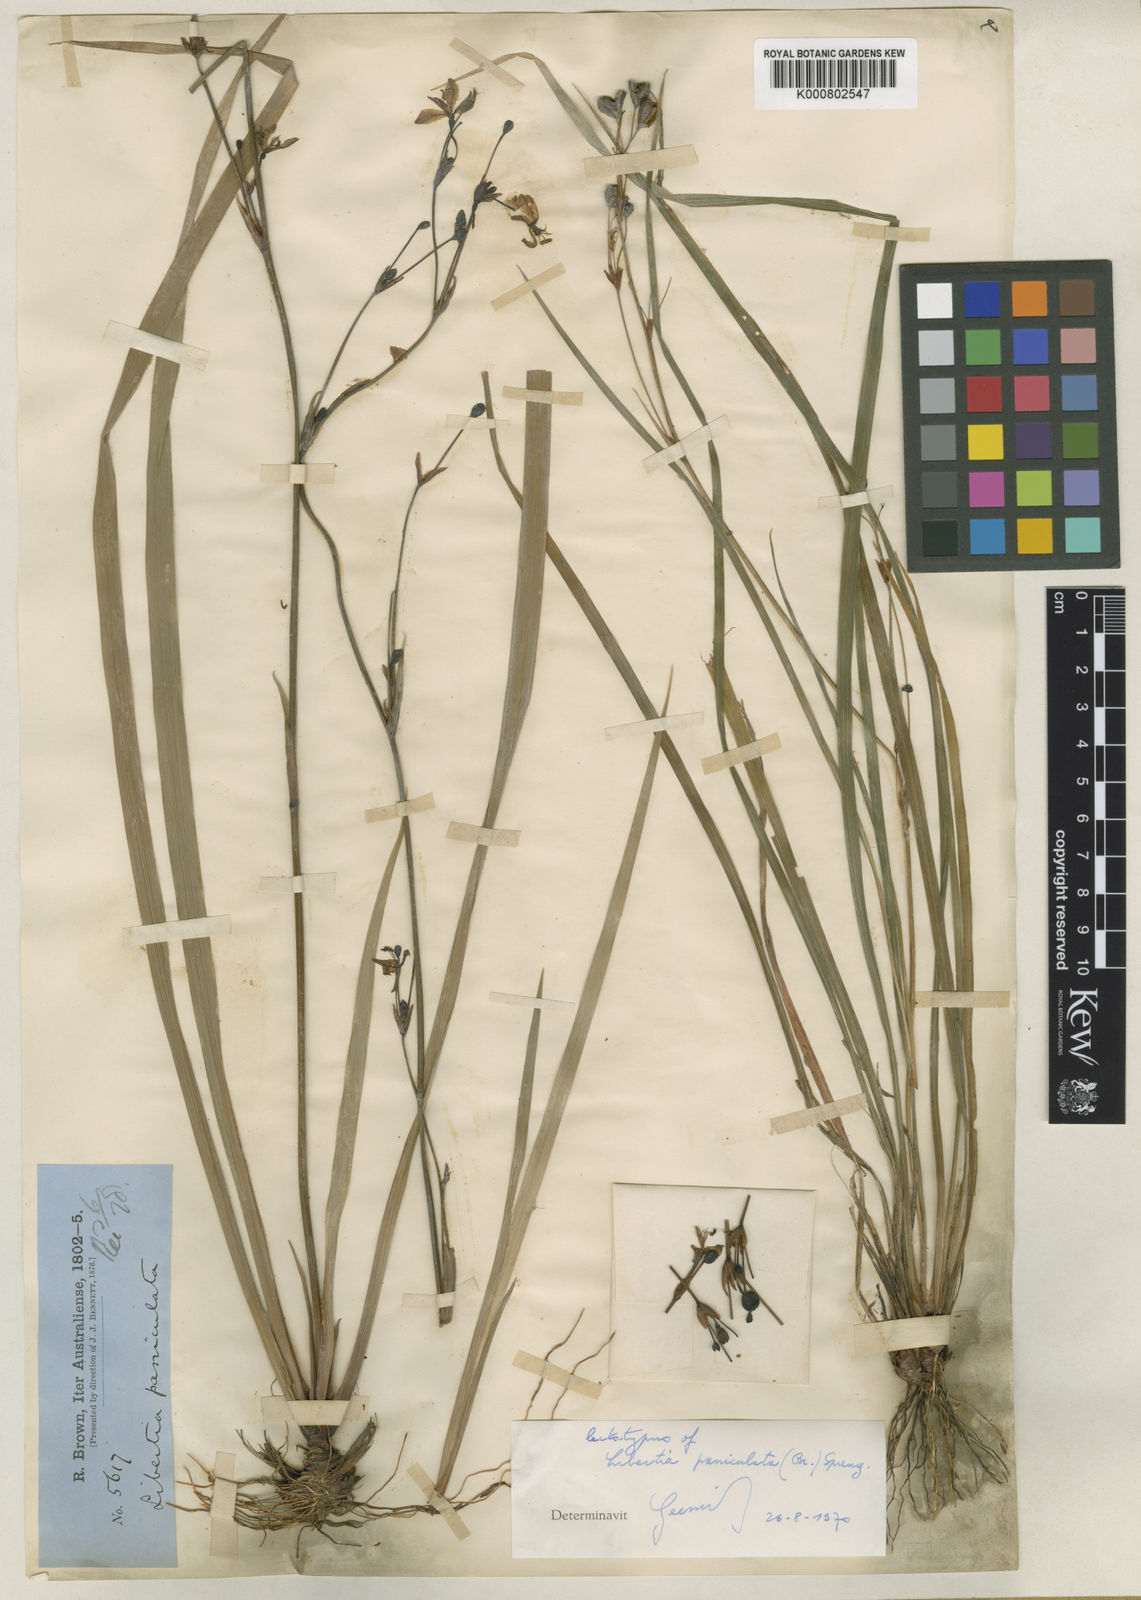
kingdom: Plantae
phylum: Tracheophyta
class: Liliopsida
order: Asparagales
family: Iridaceae
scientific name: Iridaceae
